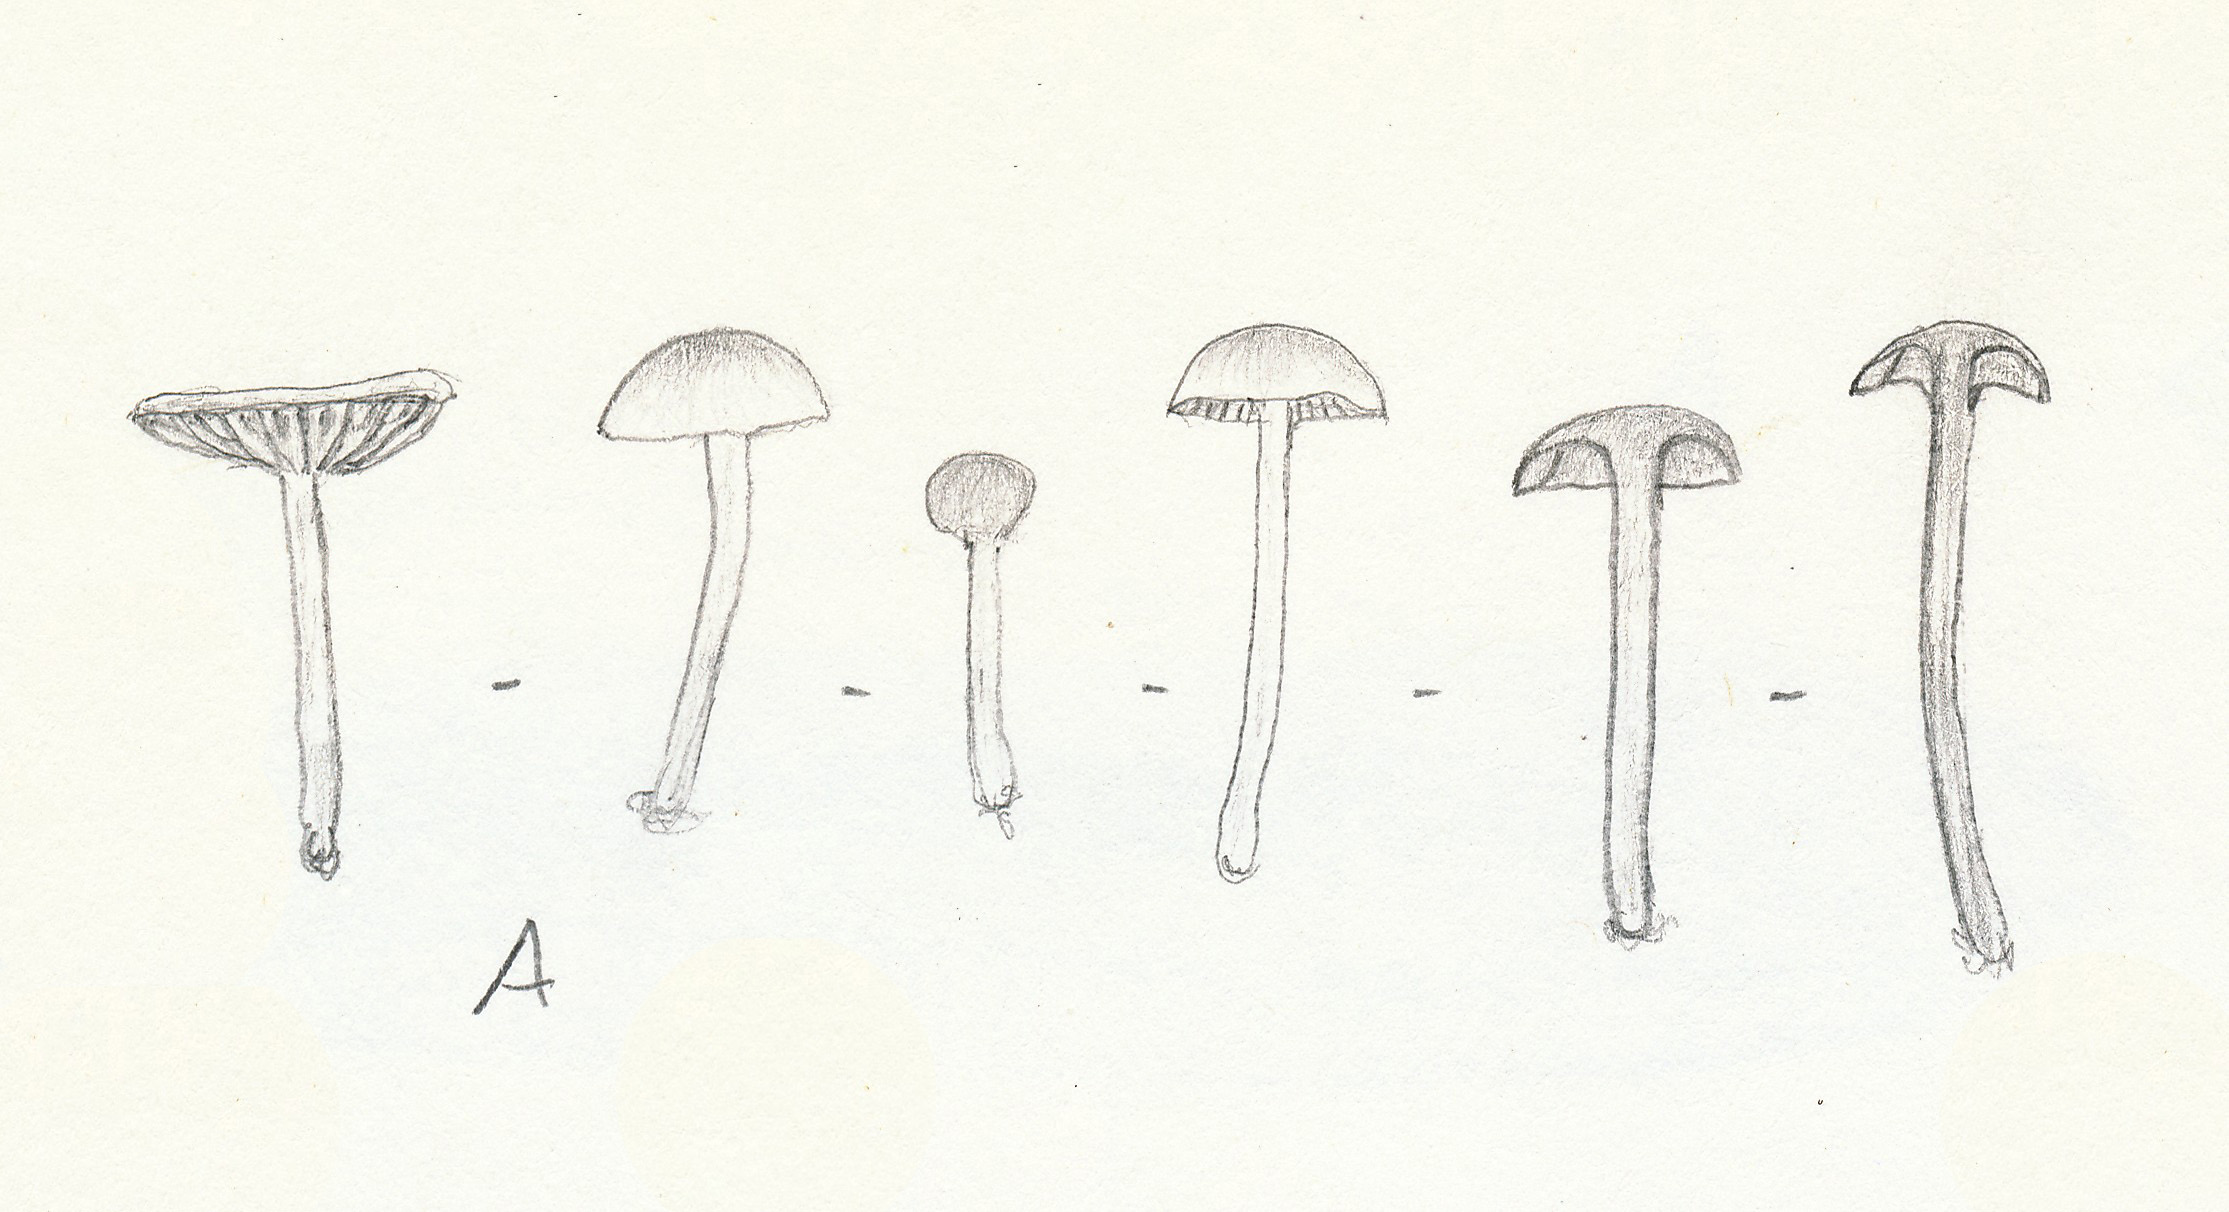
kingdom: Fungi
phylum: Basidiomycota
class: Agaricomycetes
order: Agaricales
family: Tubariaceae
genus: Tubaria
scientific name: Tubaria dispersa
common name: tjørne-fnughat
